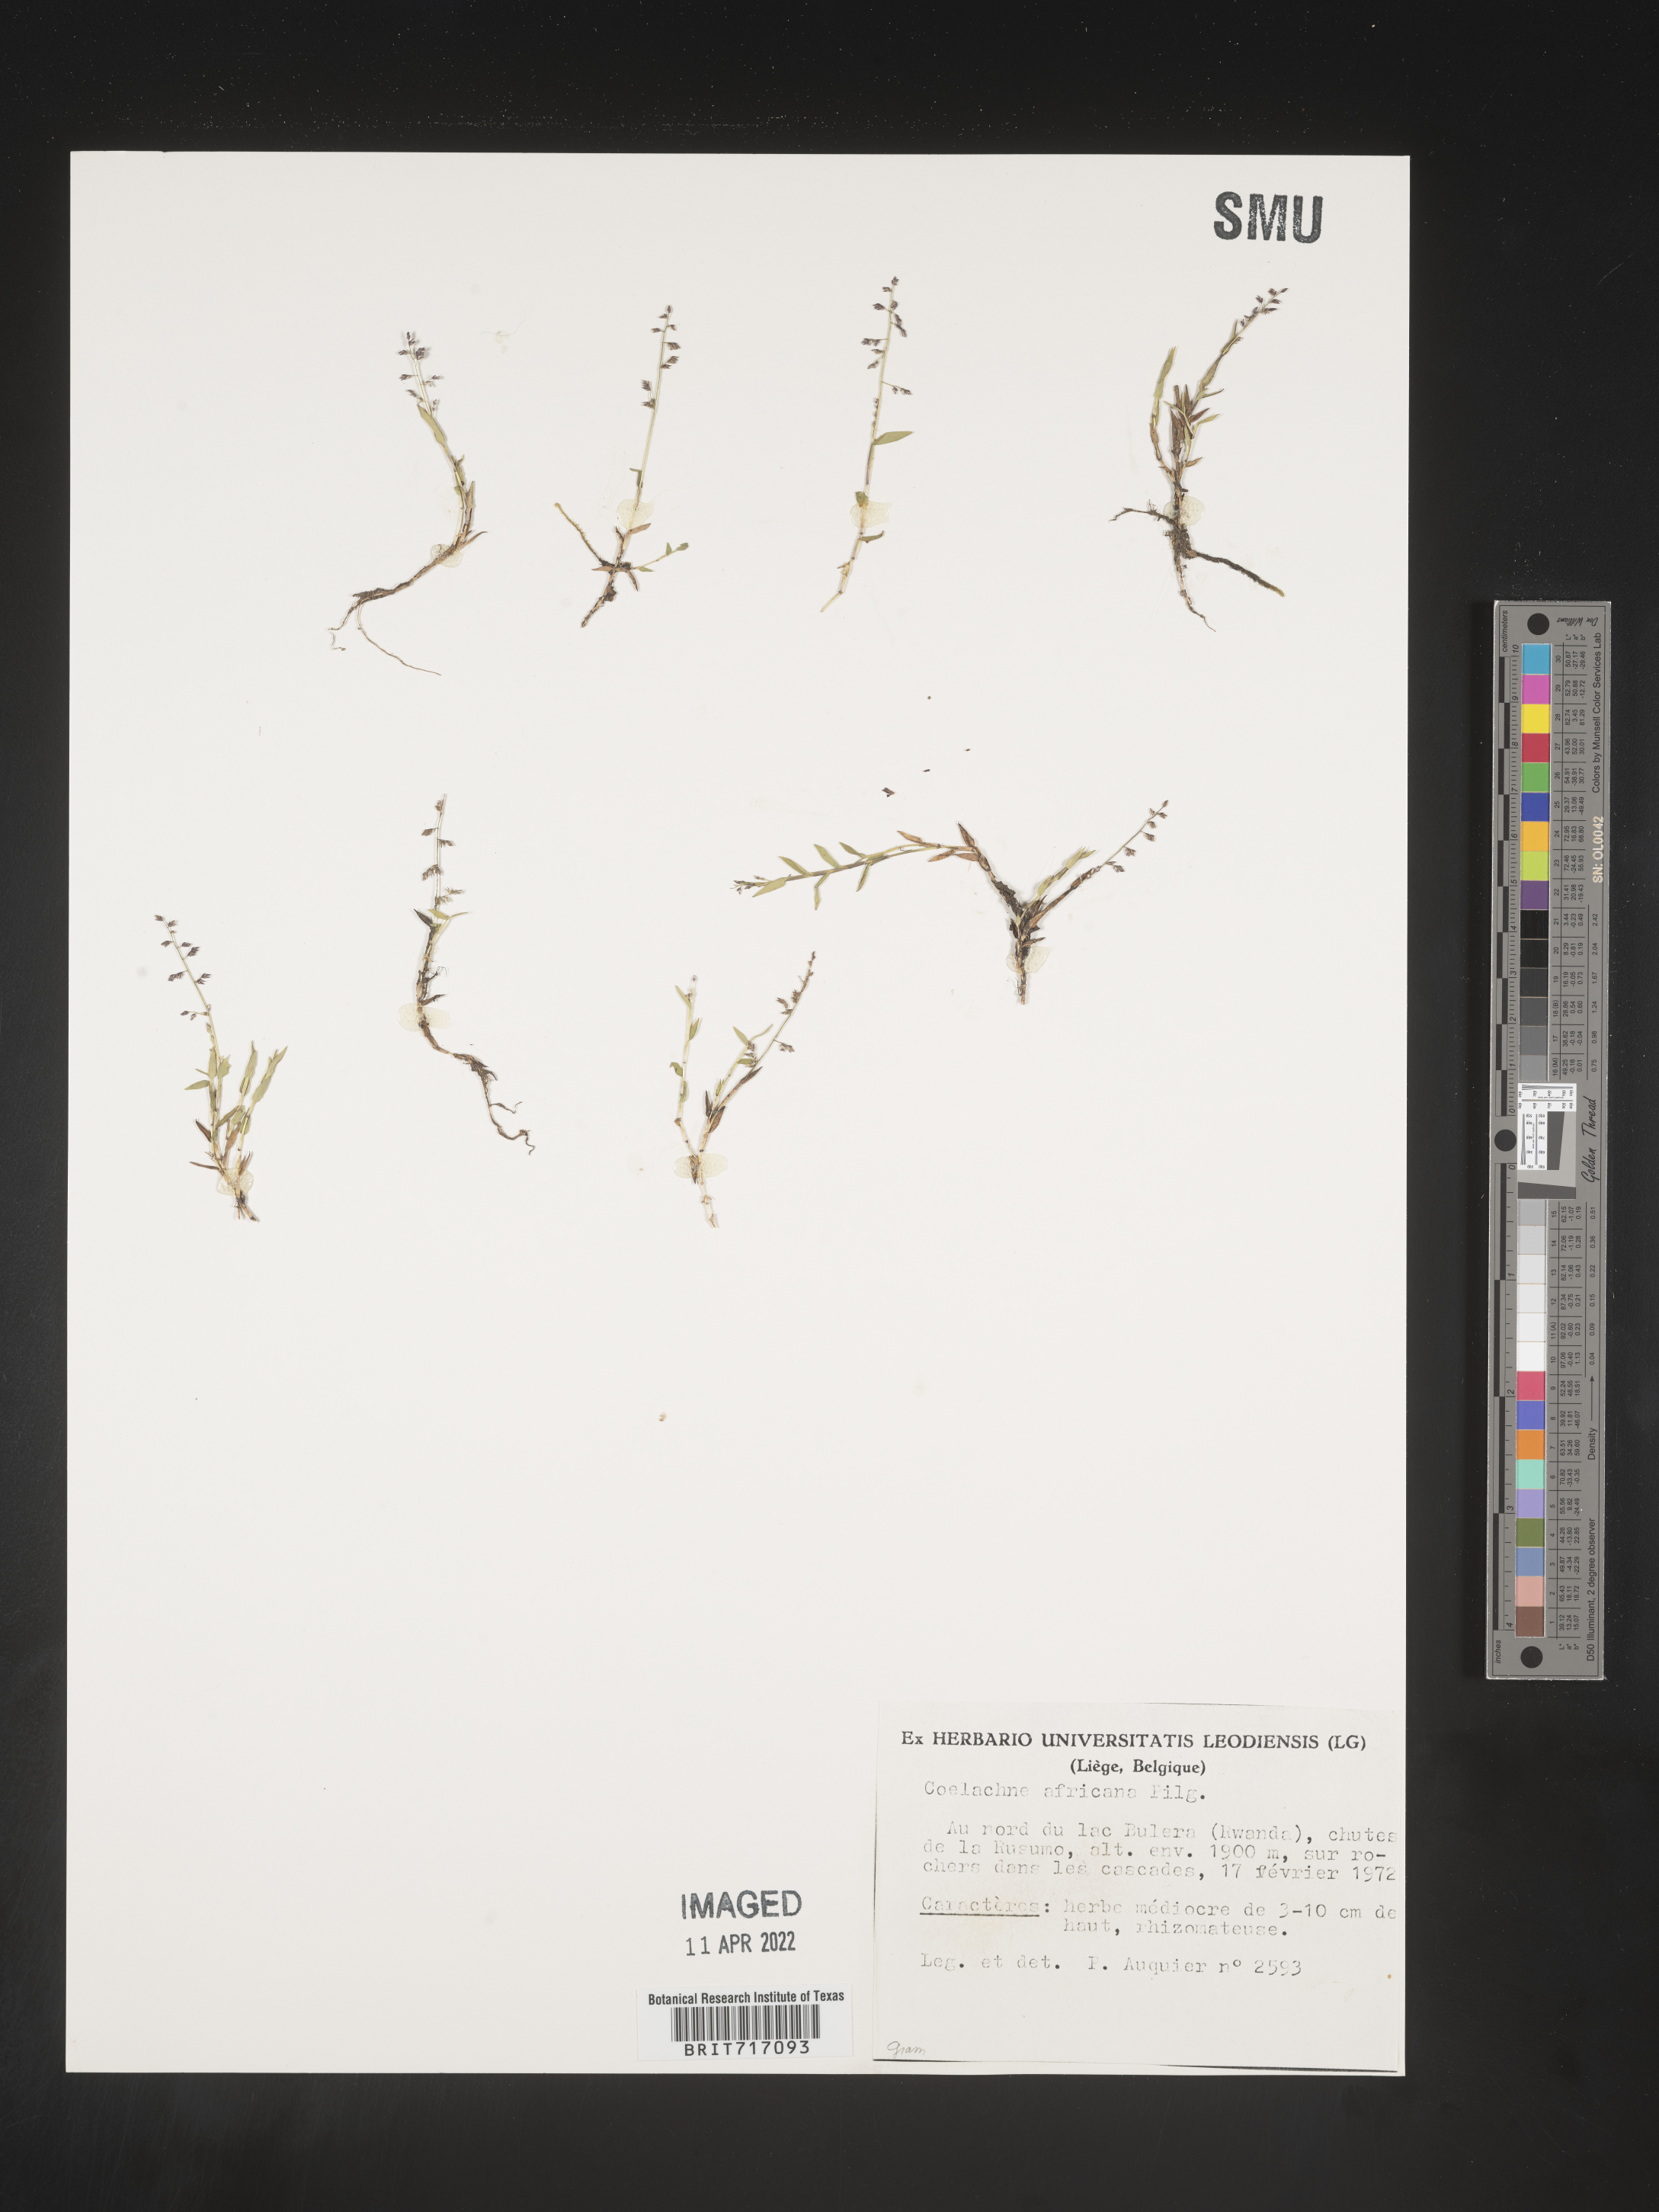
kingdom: Plantae
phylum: Tracheophyta
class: Liliopsida
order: Poales
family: Poaceae
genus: Coelachne
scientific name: Coelachne
